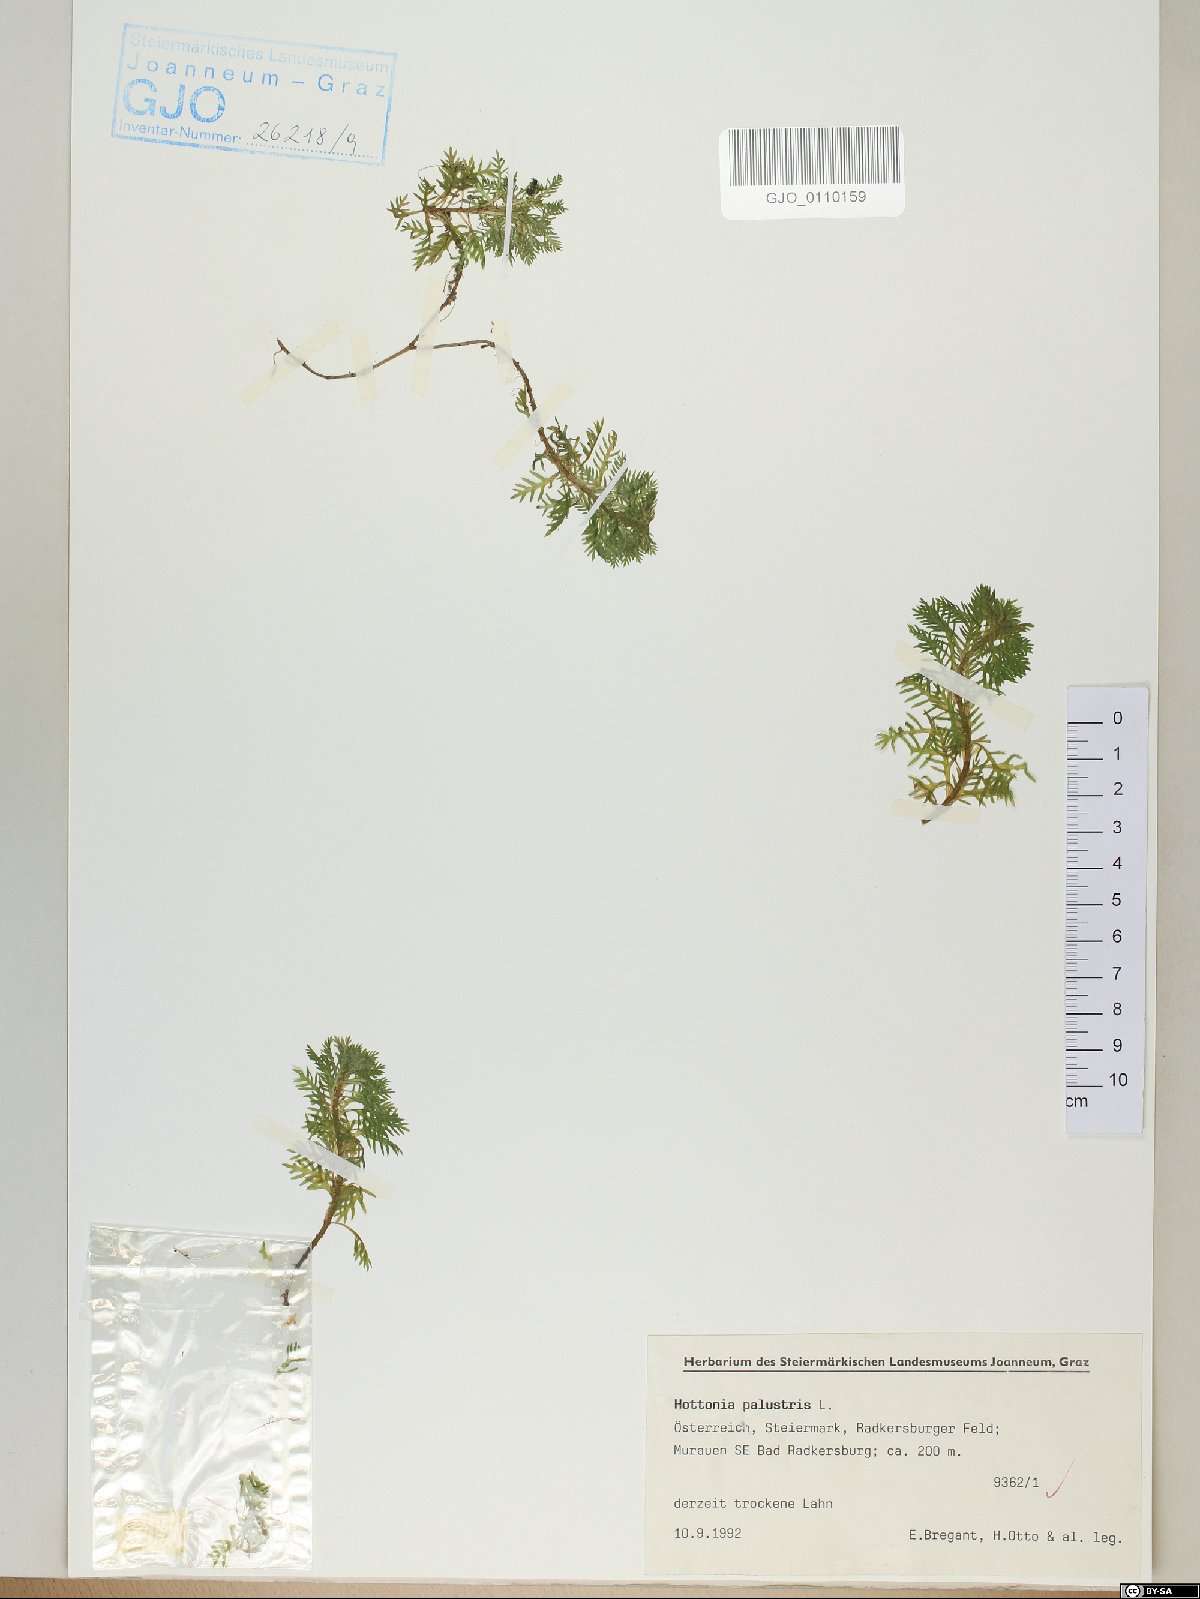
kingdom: Plantae
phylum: Tracheophyta
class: Magnoliopsida
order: Ericales
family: Primulaceae
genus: Hottonia
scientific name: Hottonia palustris
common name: Water-violet
